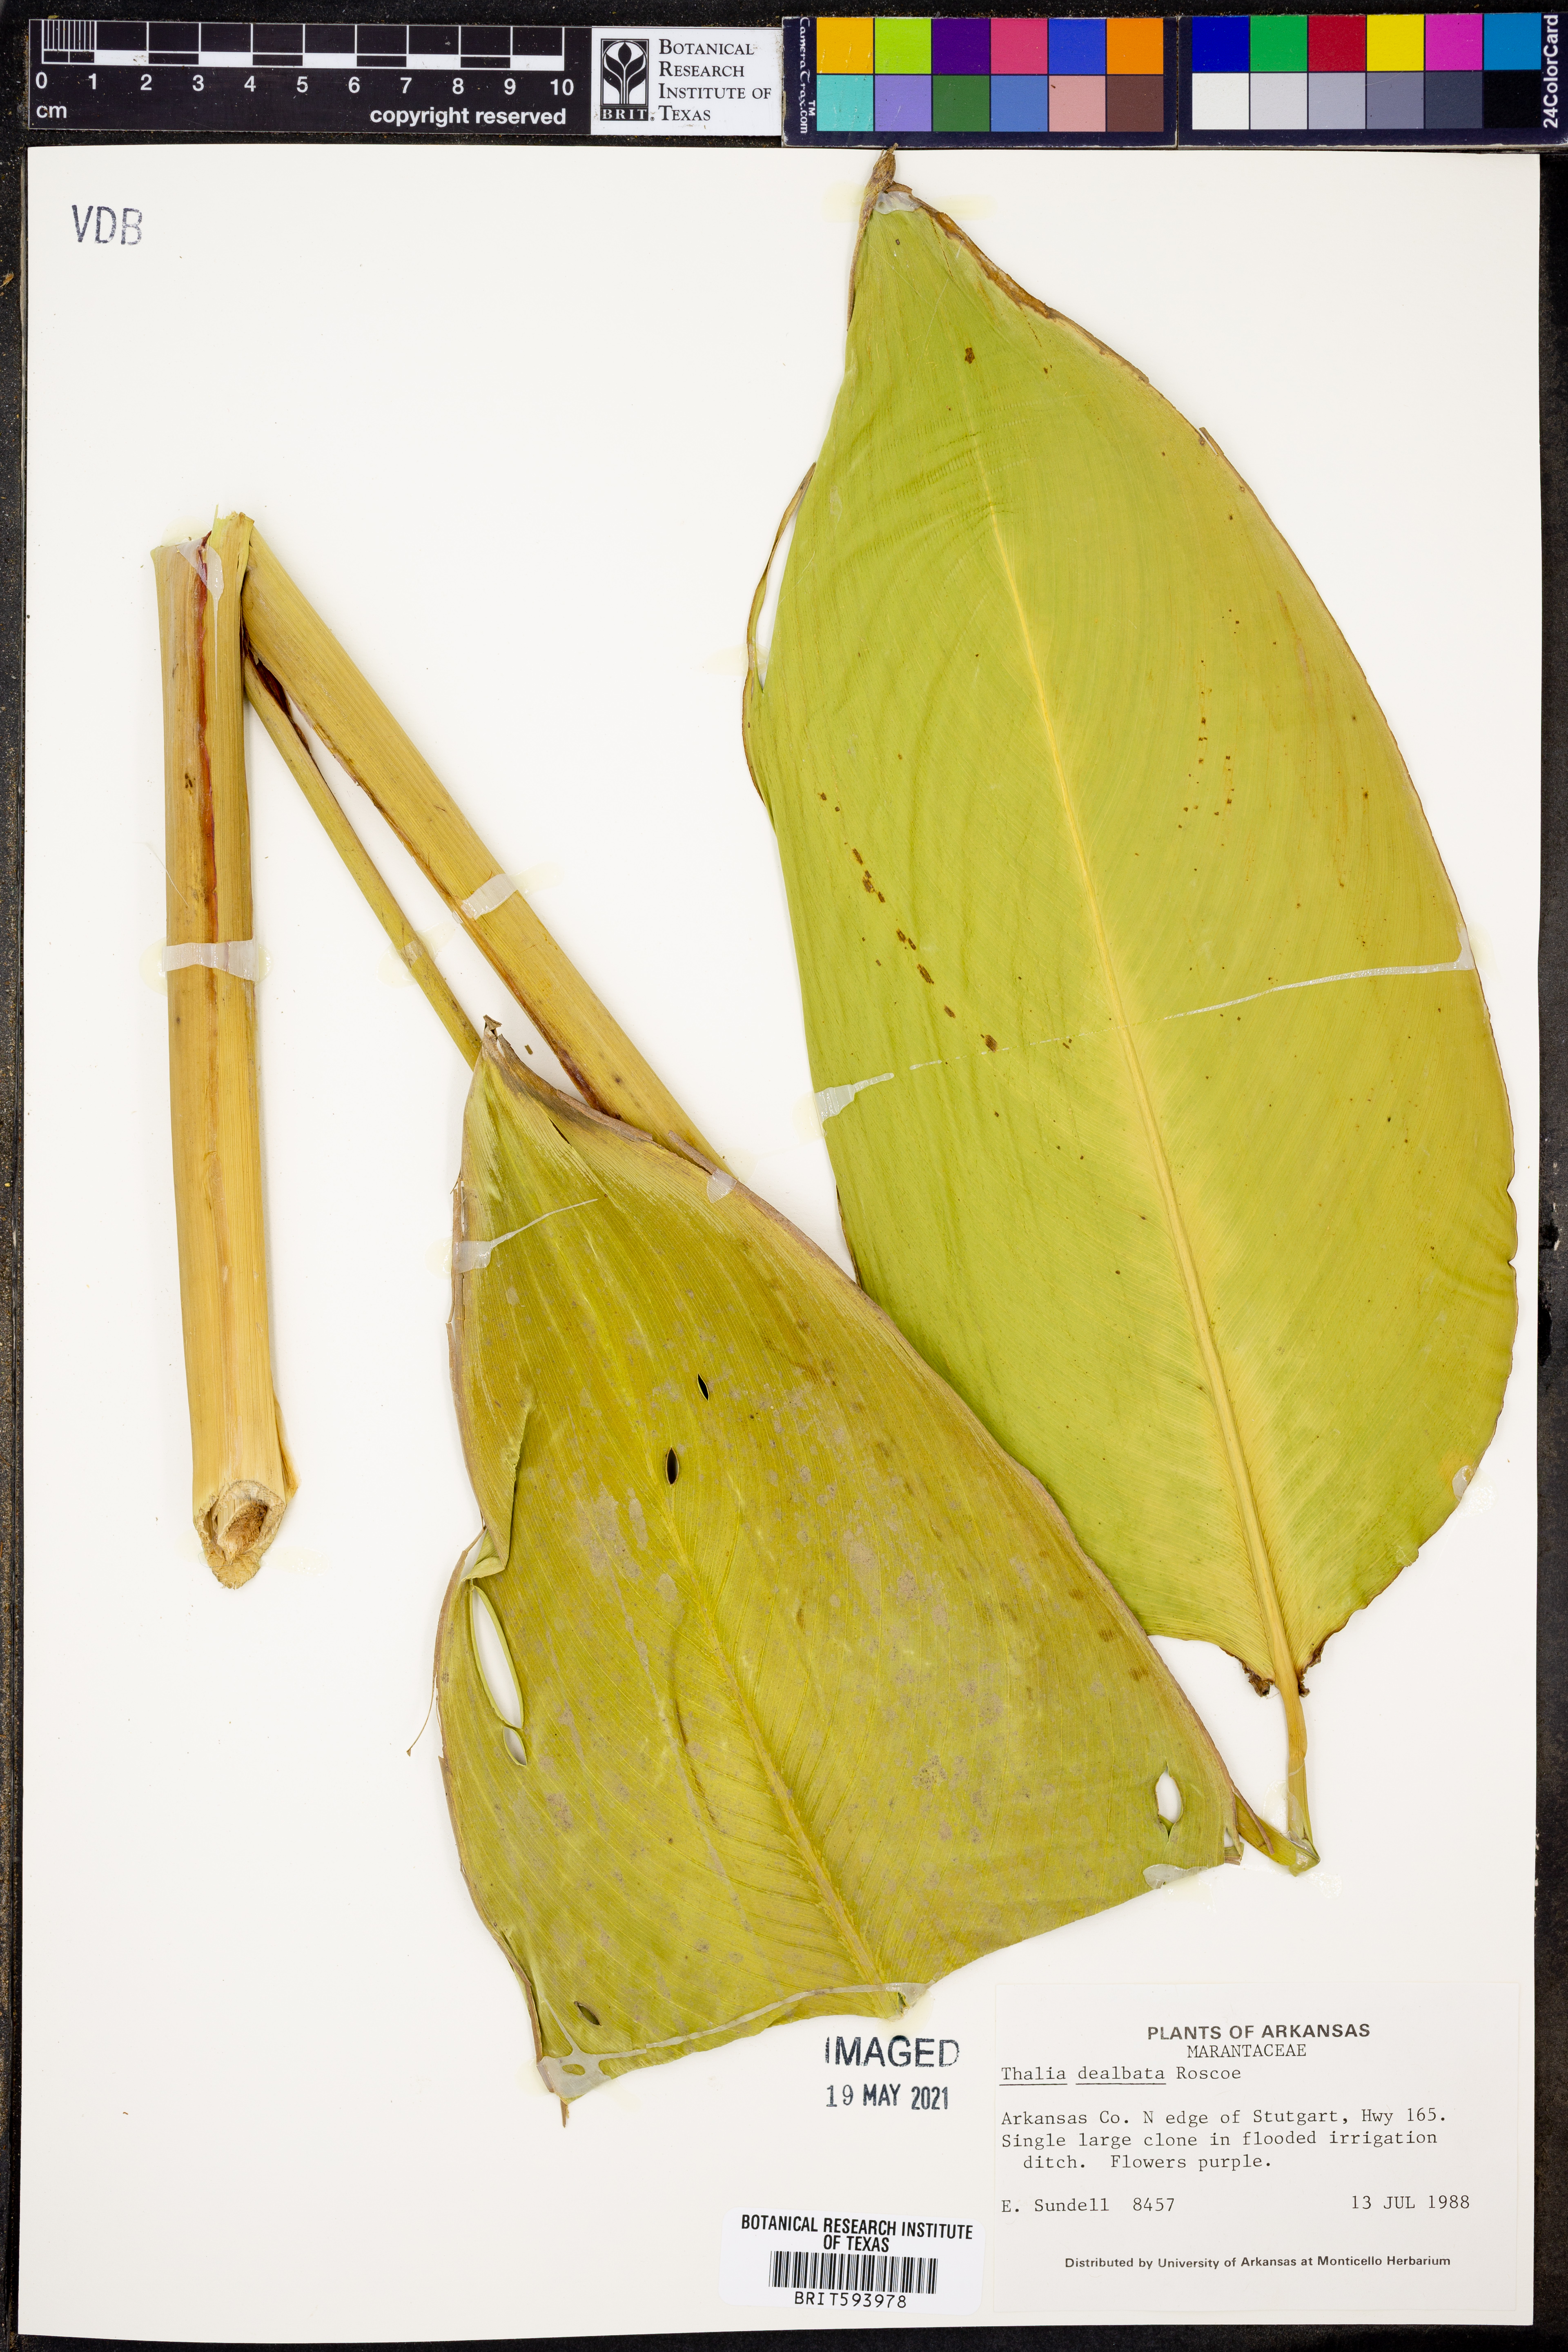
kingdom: Plantae
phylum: Tracheophyta
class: Liliopsida
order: Zingiberales
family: Marantaceae
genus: Thalia
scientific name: Thalia dealbata
